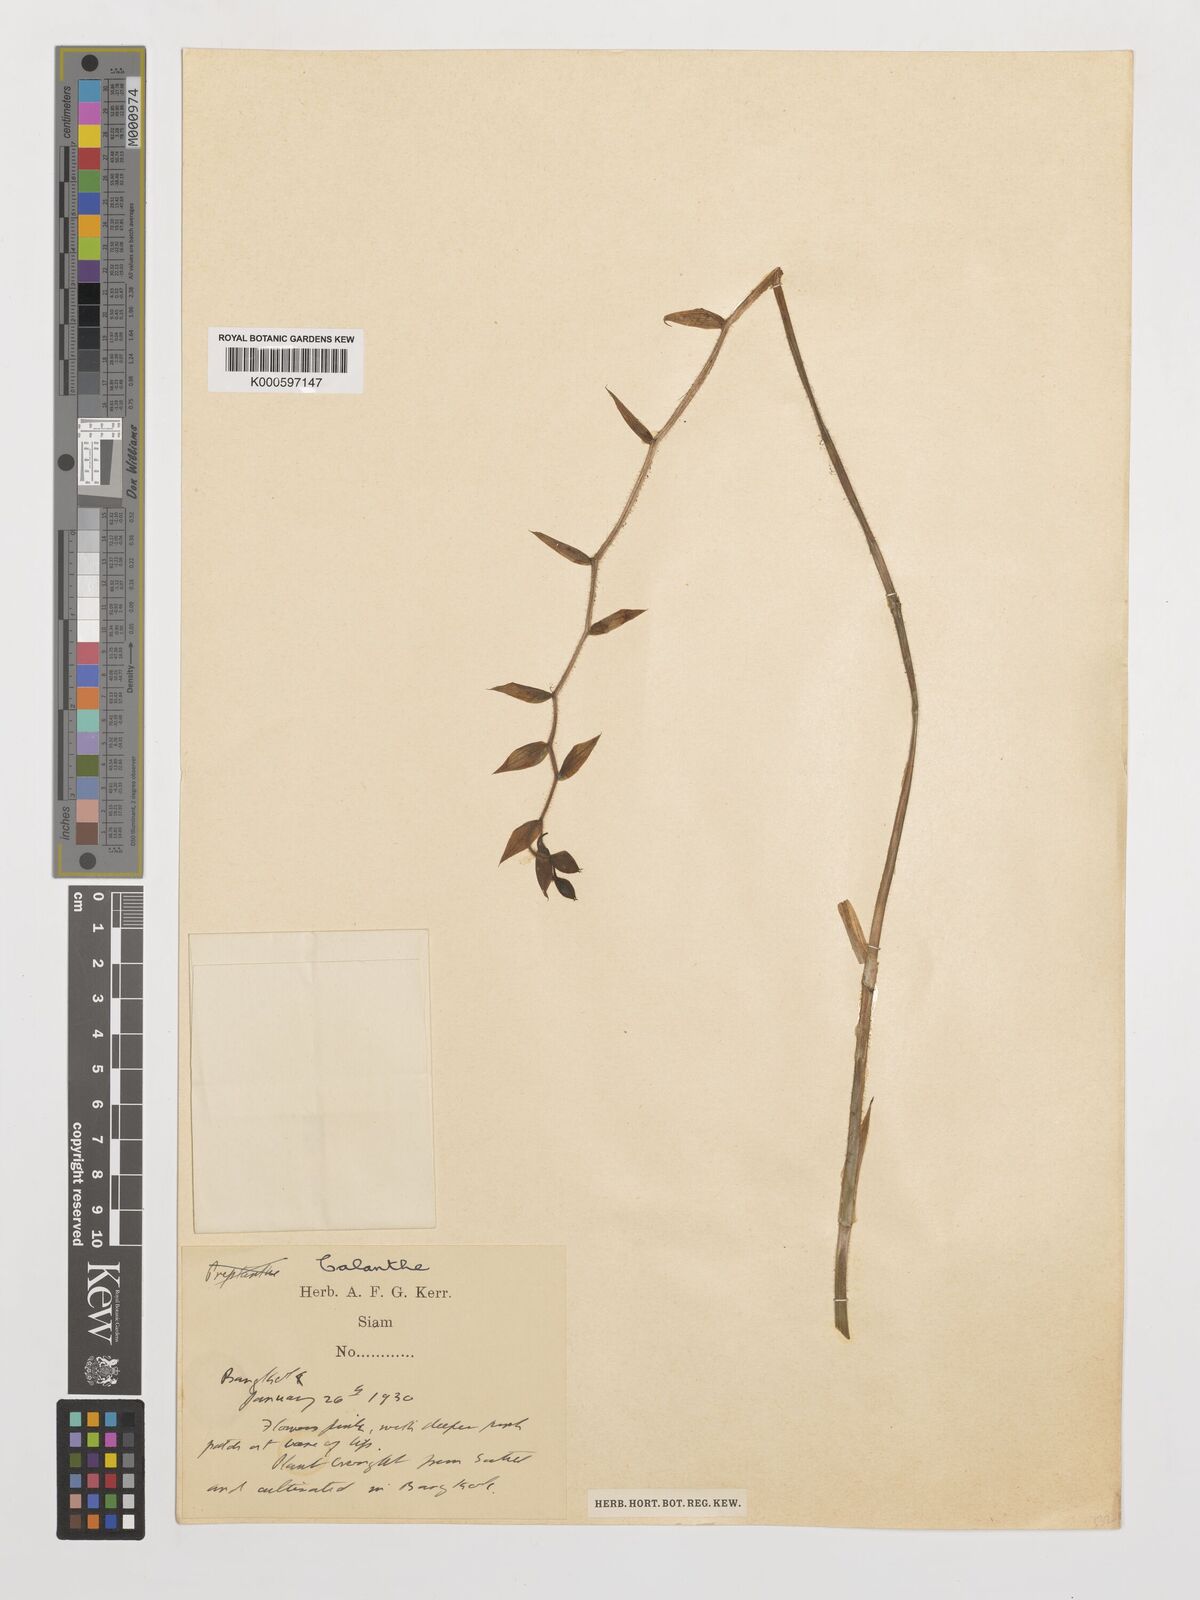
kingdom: Plantae
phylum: Tracheophyta
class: Liliopsida
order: Asparagales
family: Orchidaceae
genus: Calanthe
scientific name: Calanthe
